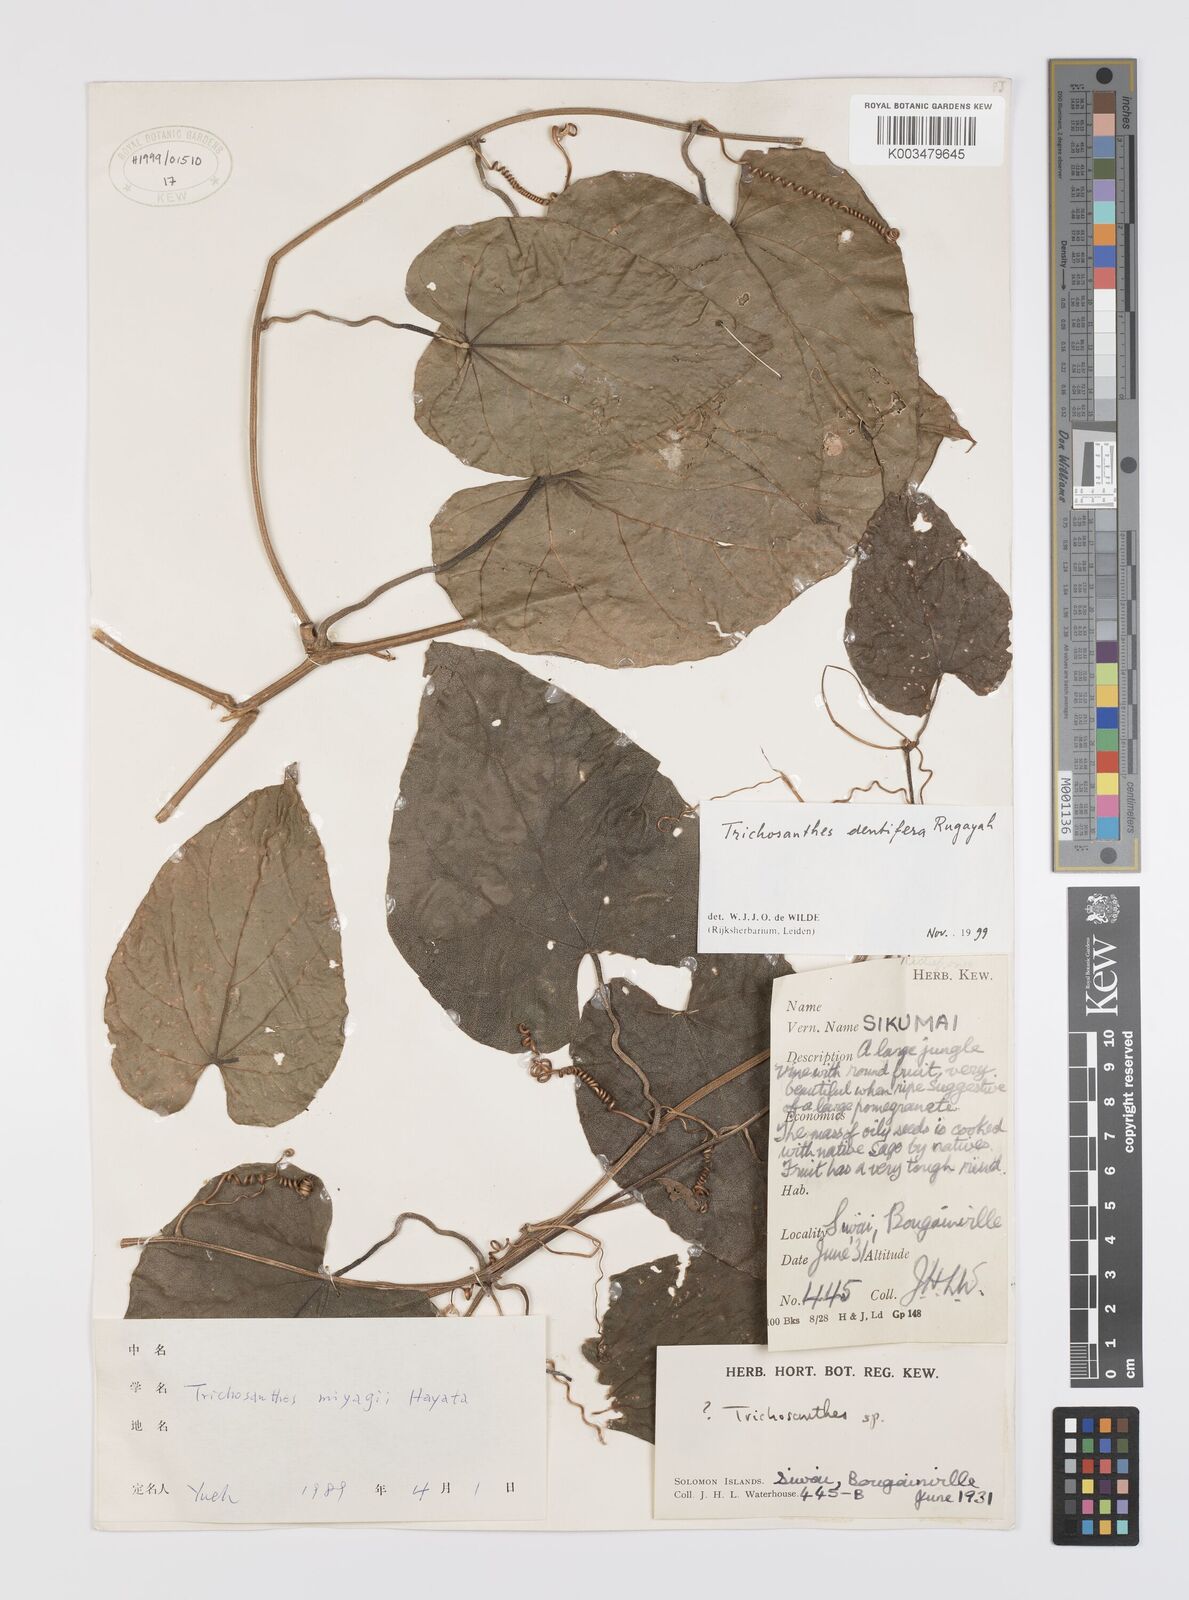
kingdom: Plantae
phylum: Tracheophyta
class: Magnoliopsida
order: Cucurbitales
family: Cucurbitaceae
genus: Trichosanthes
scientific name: Trichosanthes dentifera
